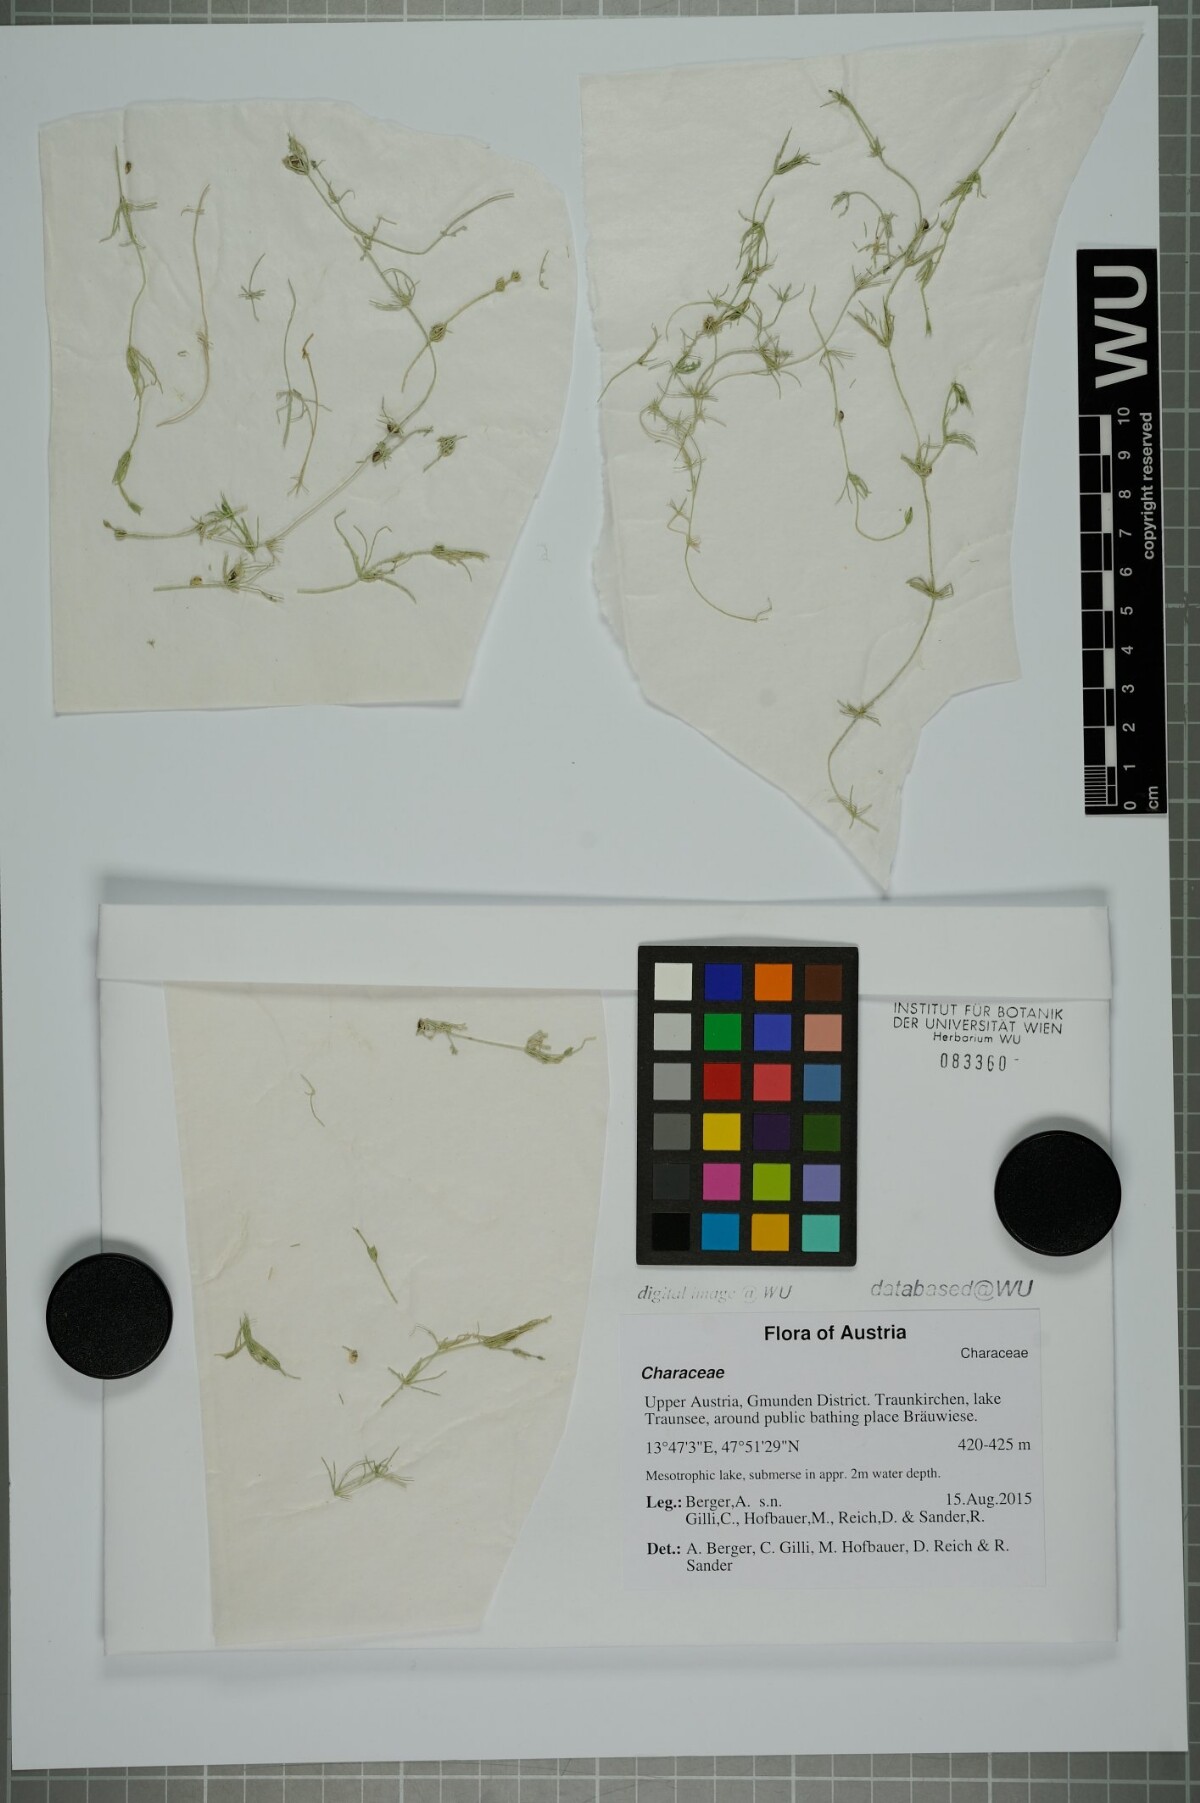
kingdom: Plantae
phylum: Charophyta
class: Charophyceae
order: Charales
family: Characeae
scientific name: Characeae
